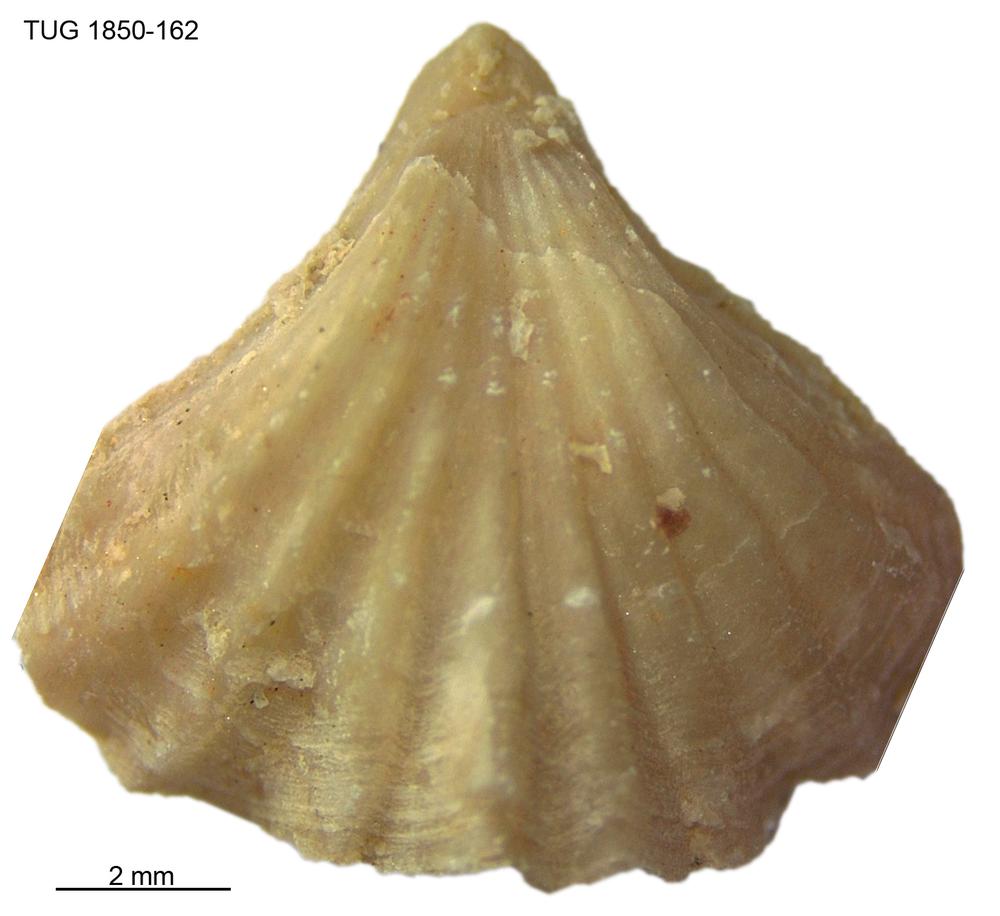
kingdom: Animalia
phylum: Brachiopoda
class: Rhynchonellata
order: Rhynchonellida
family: Rhynchotrematidae
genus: Rhynchotrema
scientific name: Rhynchotrema
